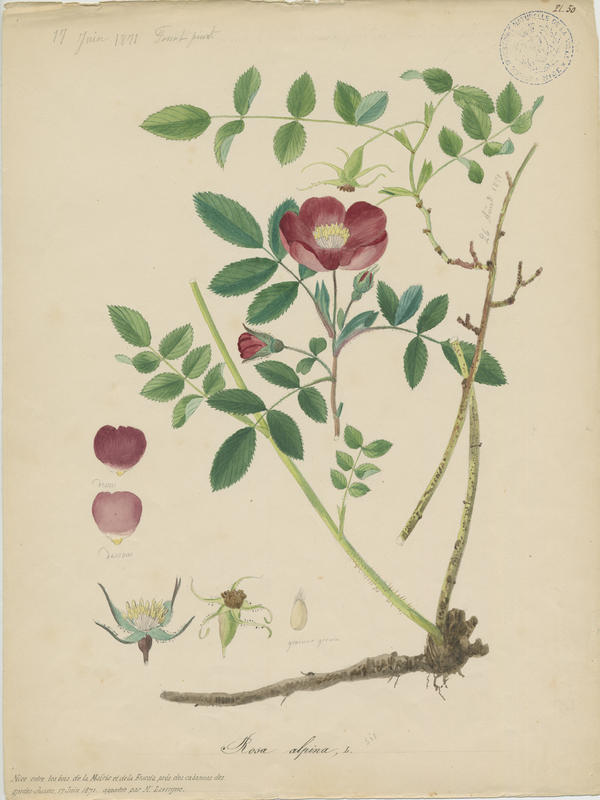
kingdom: Plantae
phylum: Tracheophyta
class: Magnoliopsida
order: Rosales
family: Rosaceae
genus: Rosa
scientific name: Rosa pendulina
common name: Alpine rose
